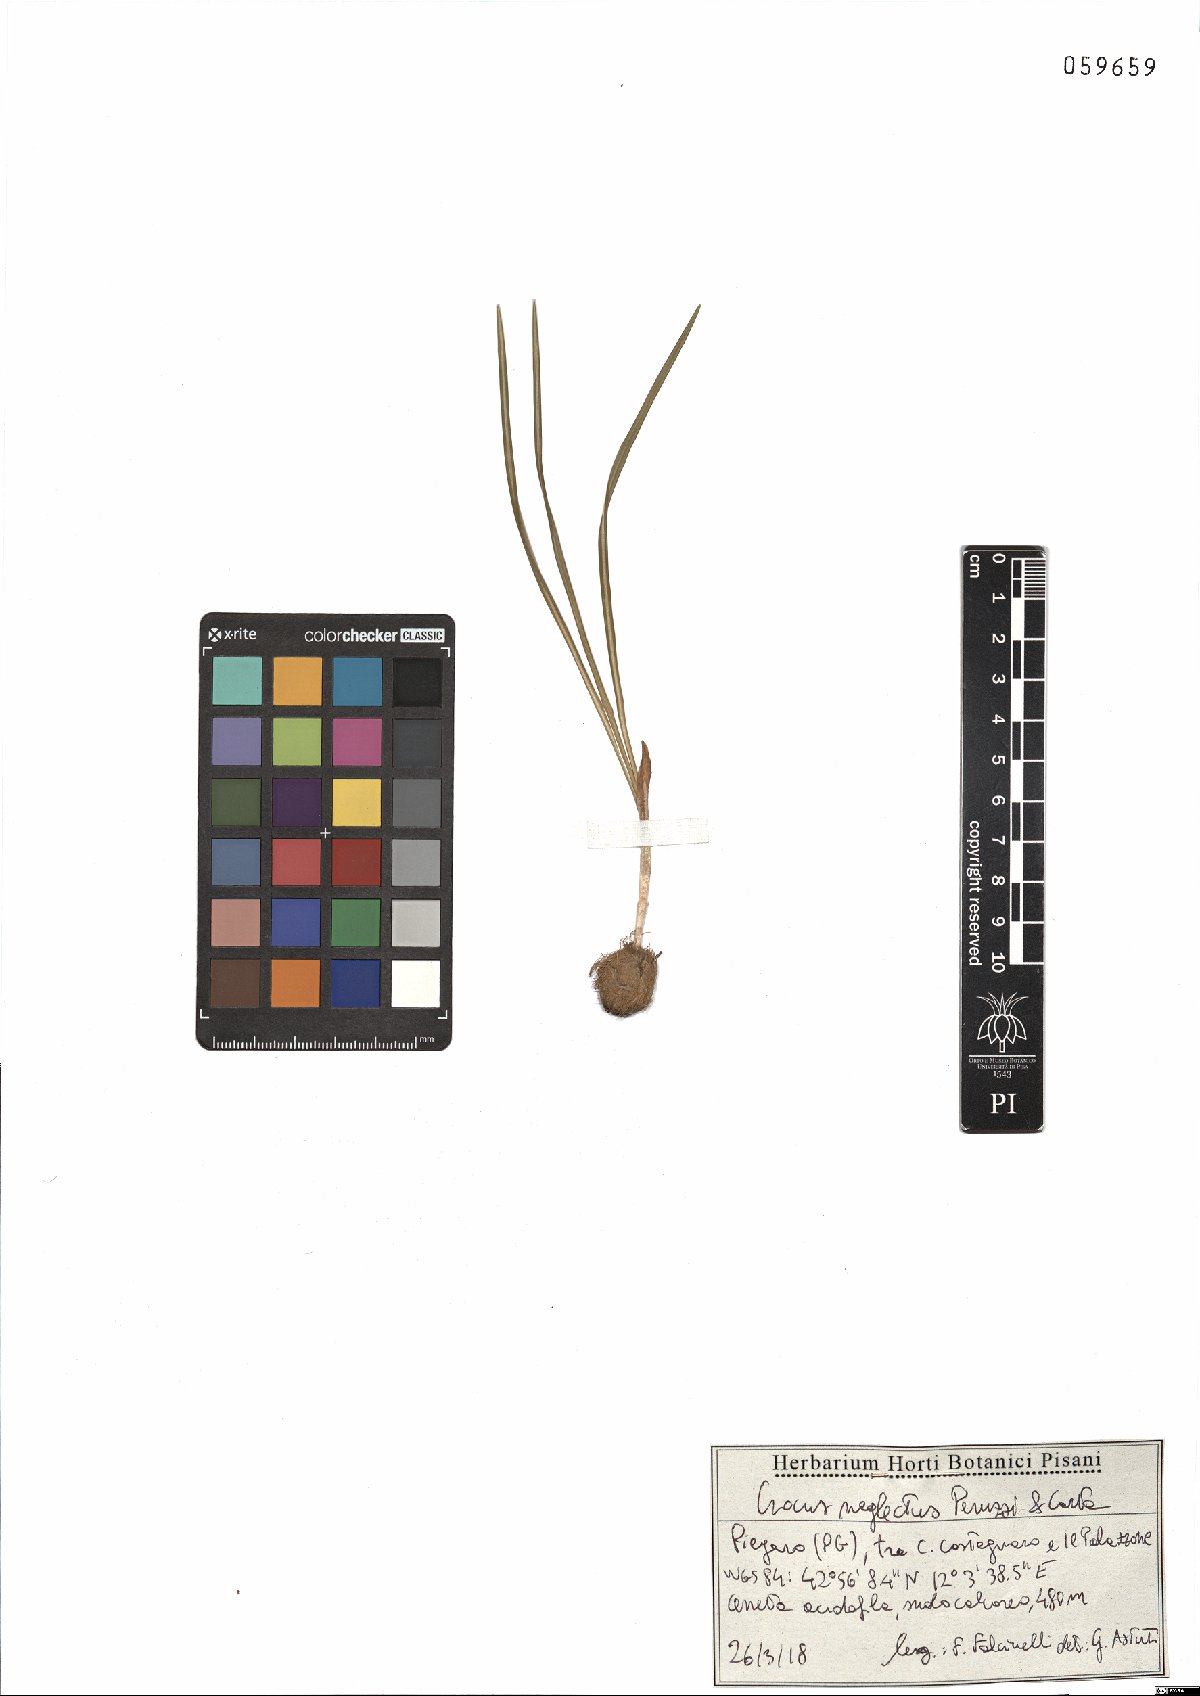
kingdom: Plantae
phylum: Tracheophyta
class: Liliopsida
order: Asparagales
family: Iridaceae
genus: Crocus
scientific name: Crocus neglectus
